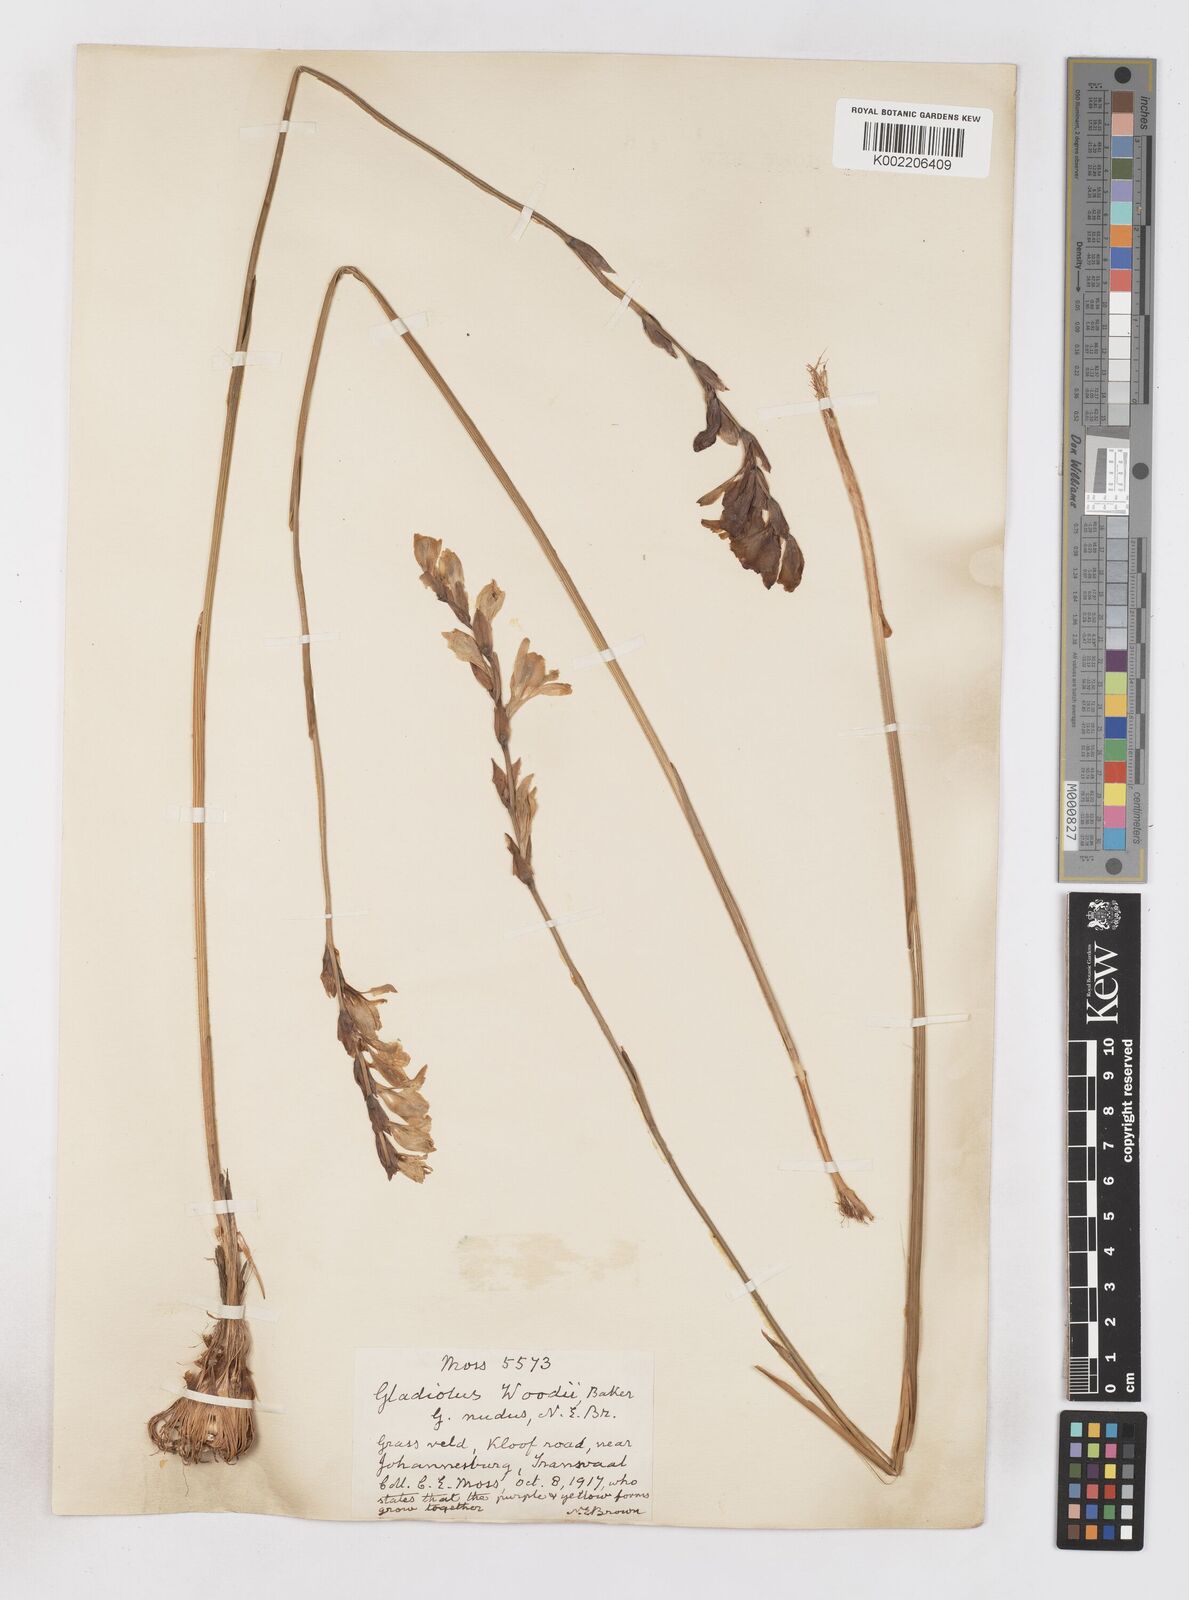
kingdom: Plantae
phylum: Tracheophyta
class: Liliopsida
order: Asparagales
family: Iridaceae
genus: Gladiolus
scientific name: Gladiolus woodii
